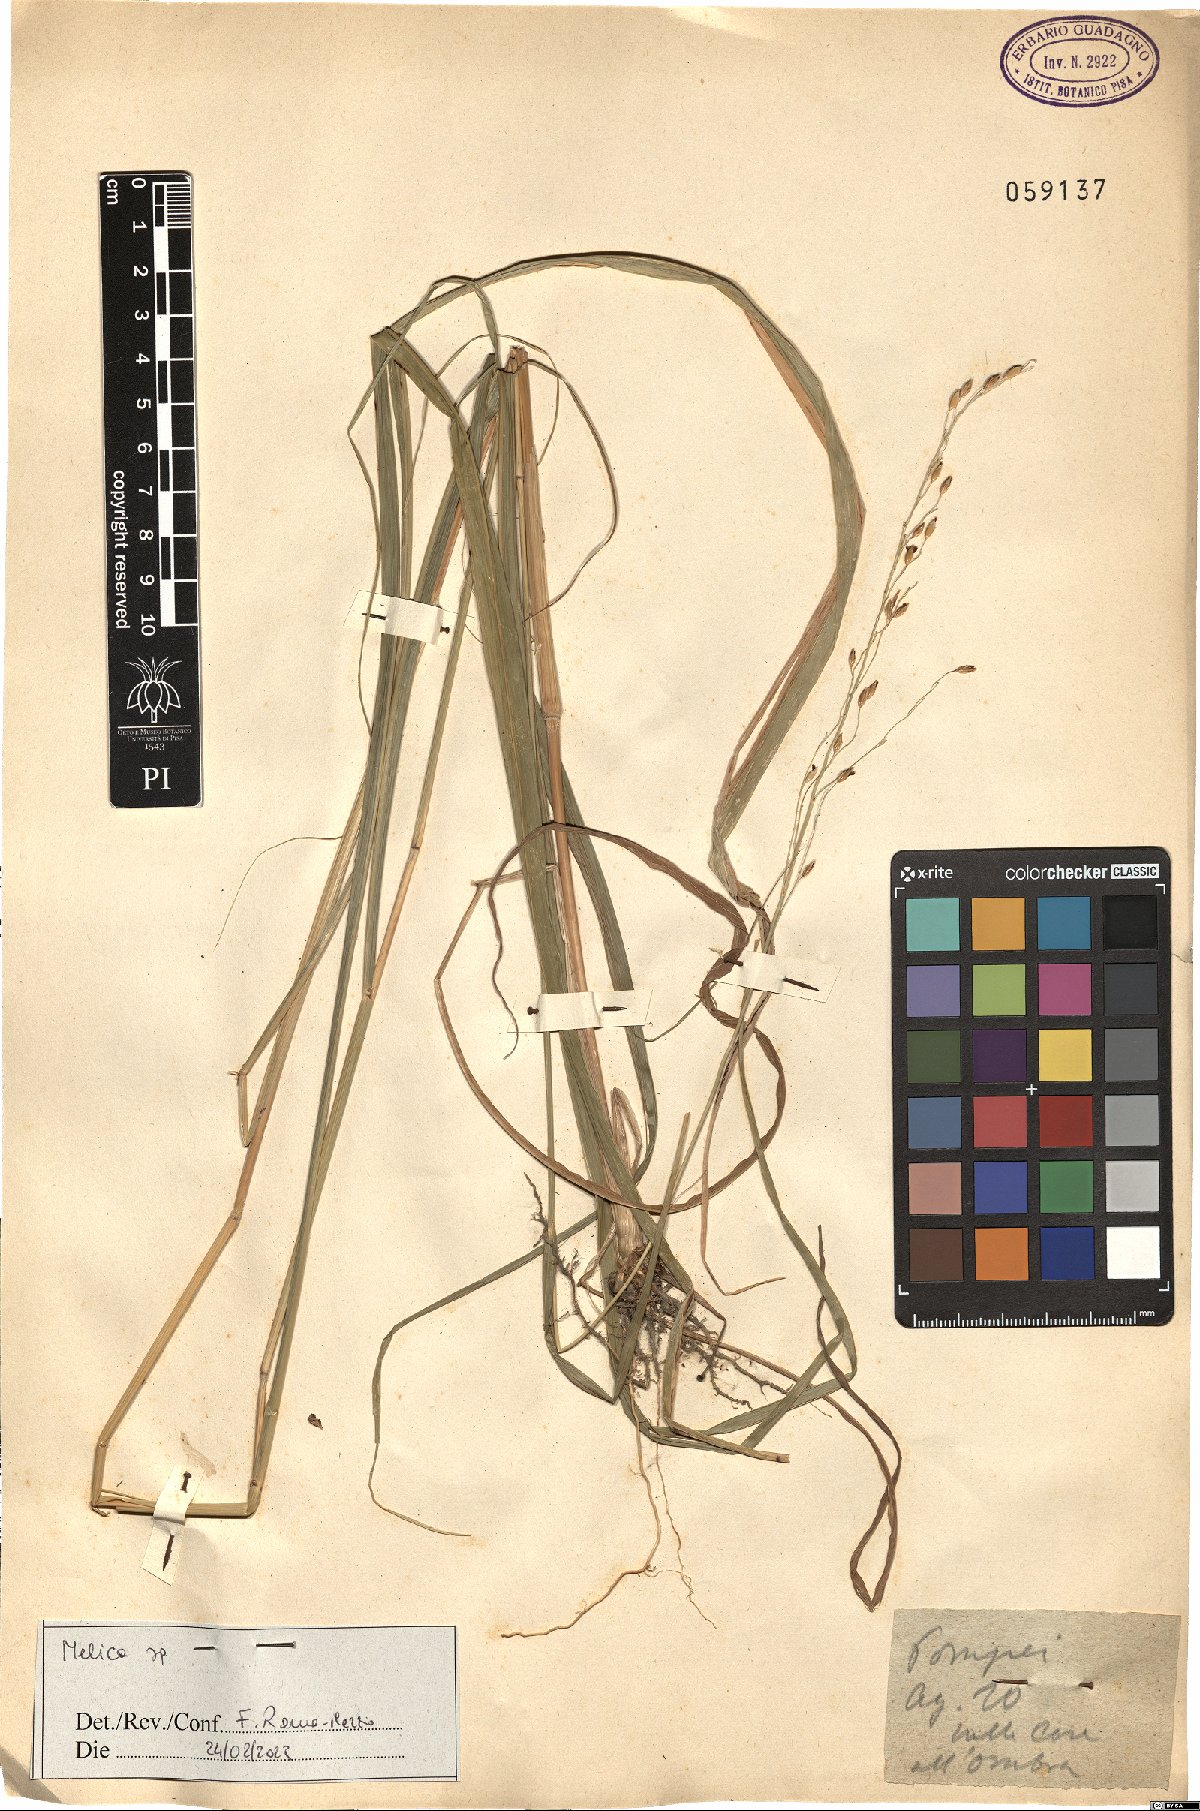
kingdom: Plantae
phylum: Tracheophyta
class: Liliopsida
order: Poales
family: Poaceae
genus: Melica
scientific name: Melica
